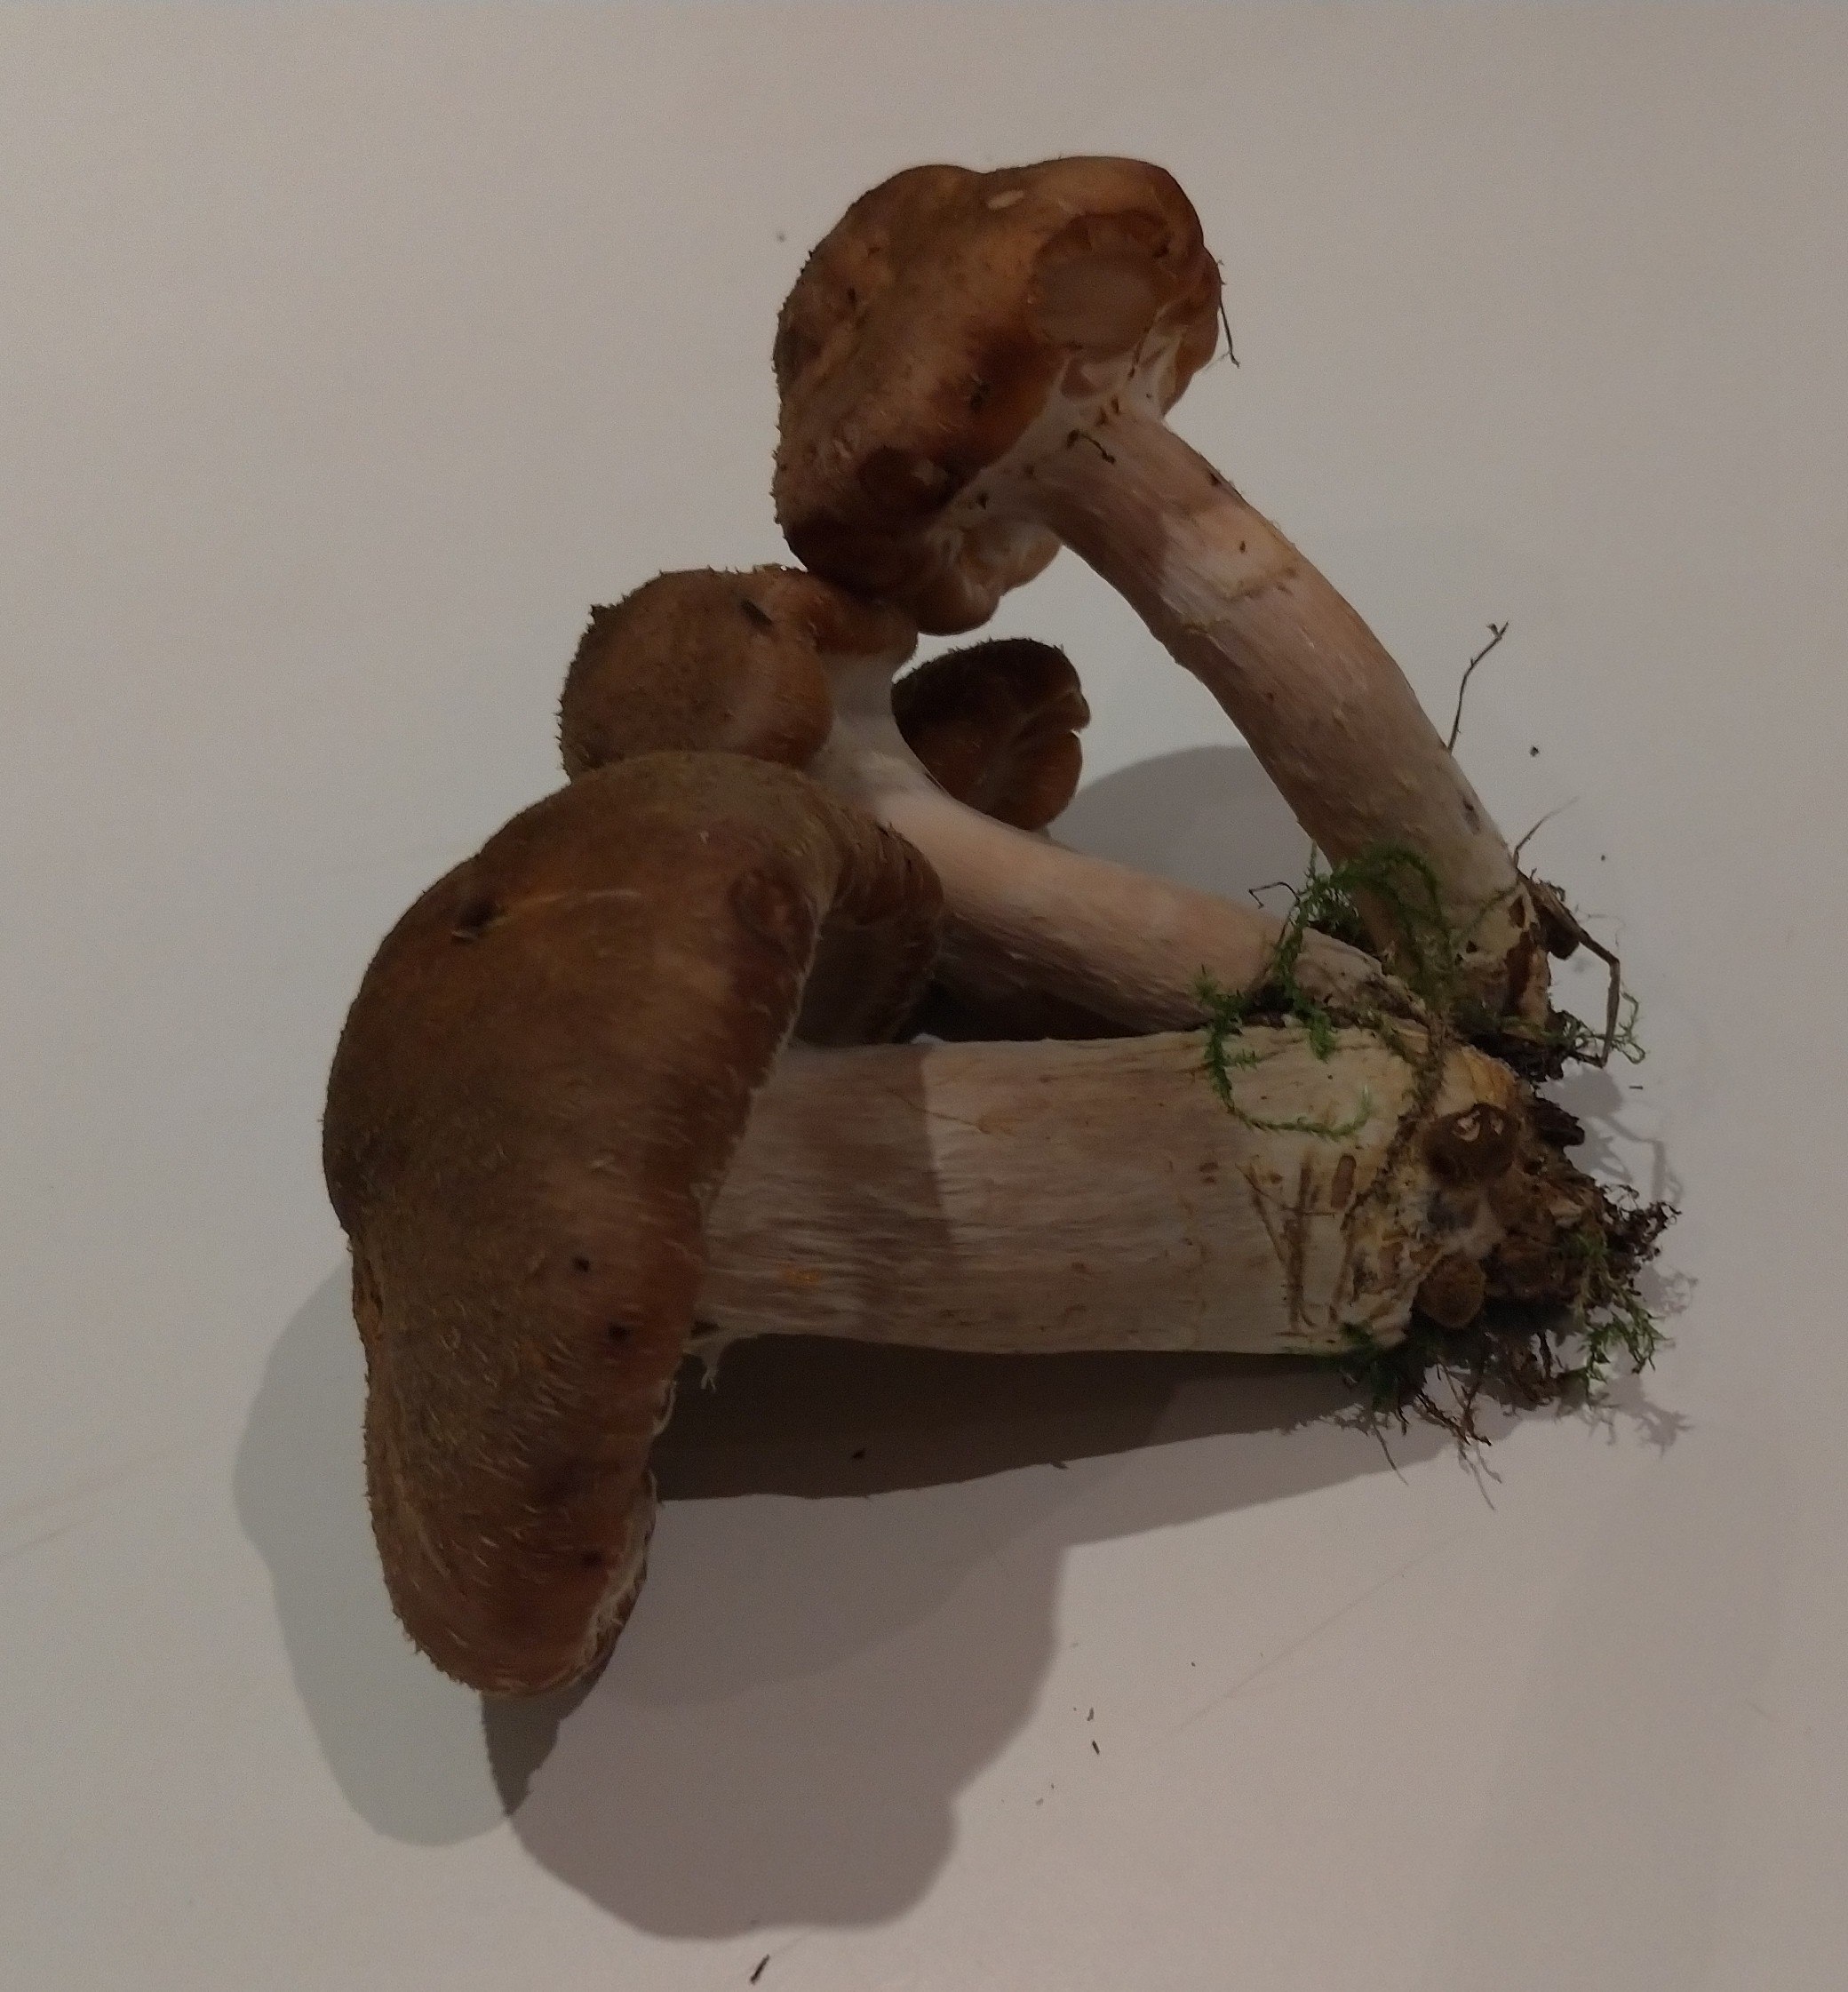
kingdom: Fungi
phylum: Basidiomycota
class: Agaricomycetes
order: Agaricales
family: Physalacriaceae
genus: Armillaria
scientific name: Armillaria
